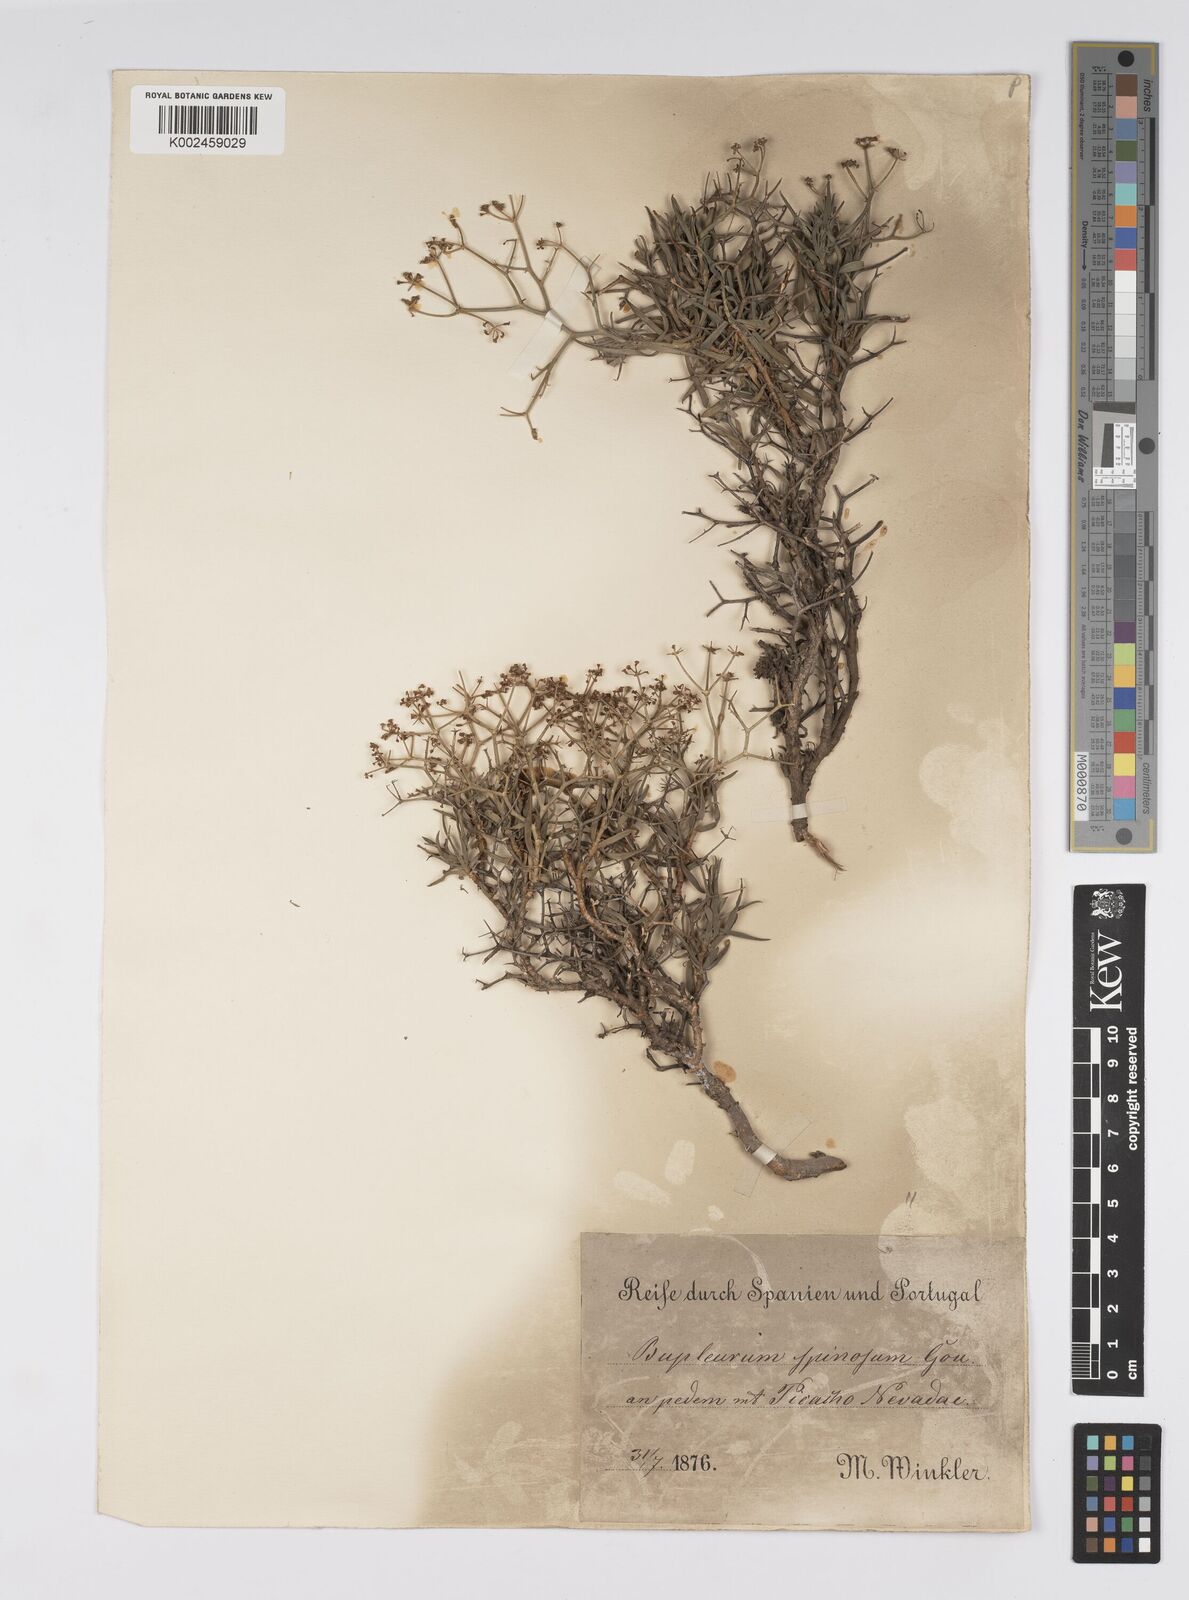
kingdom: Plantae
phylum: Tracheophyta
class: Magnoliopsida
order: Apiales
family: Apiaceae
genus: Bupleurum
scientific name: Bupleurum fruticescens
